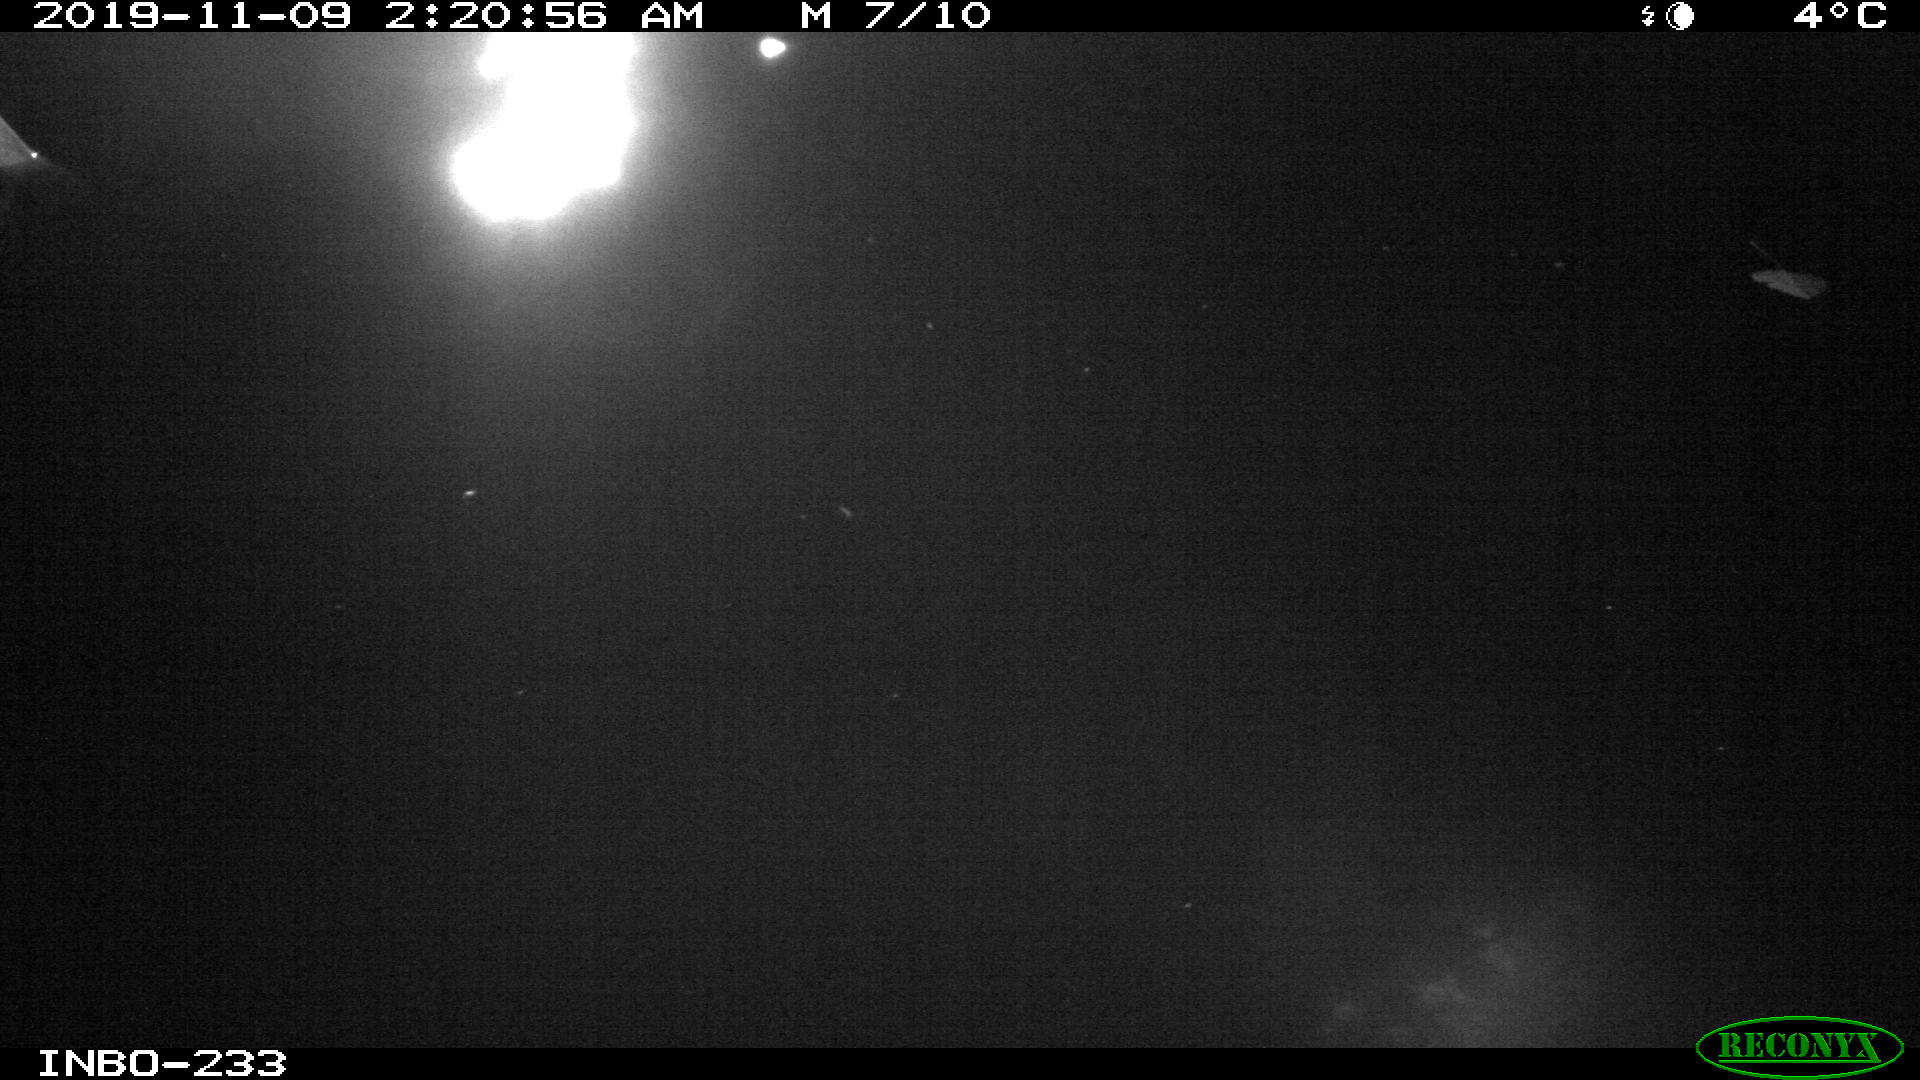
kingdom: Animalia
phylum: Chordata
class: Aves
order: Anseriformes
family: Anatidae
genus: Anas
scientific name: Anas platyrhynchos
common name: Mallard
